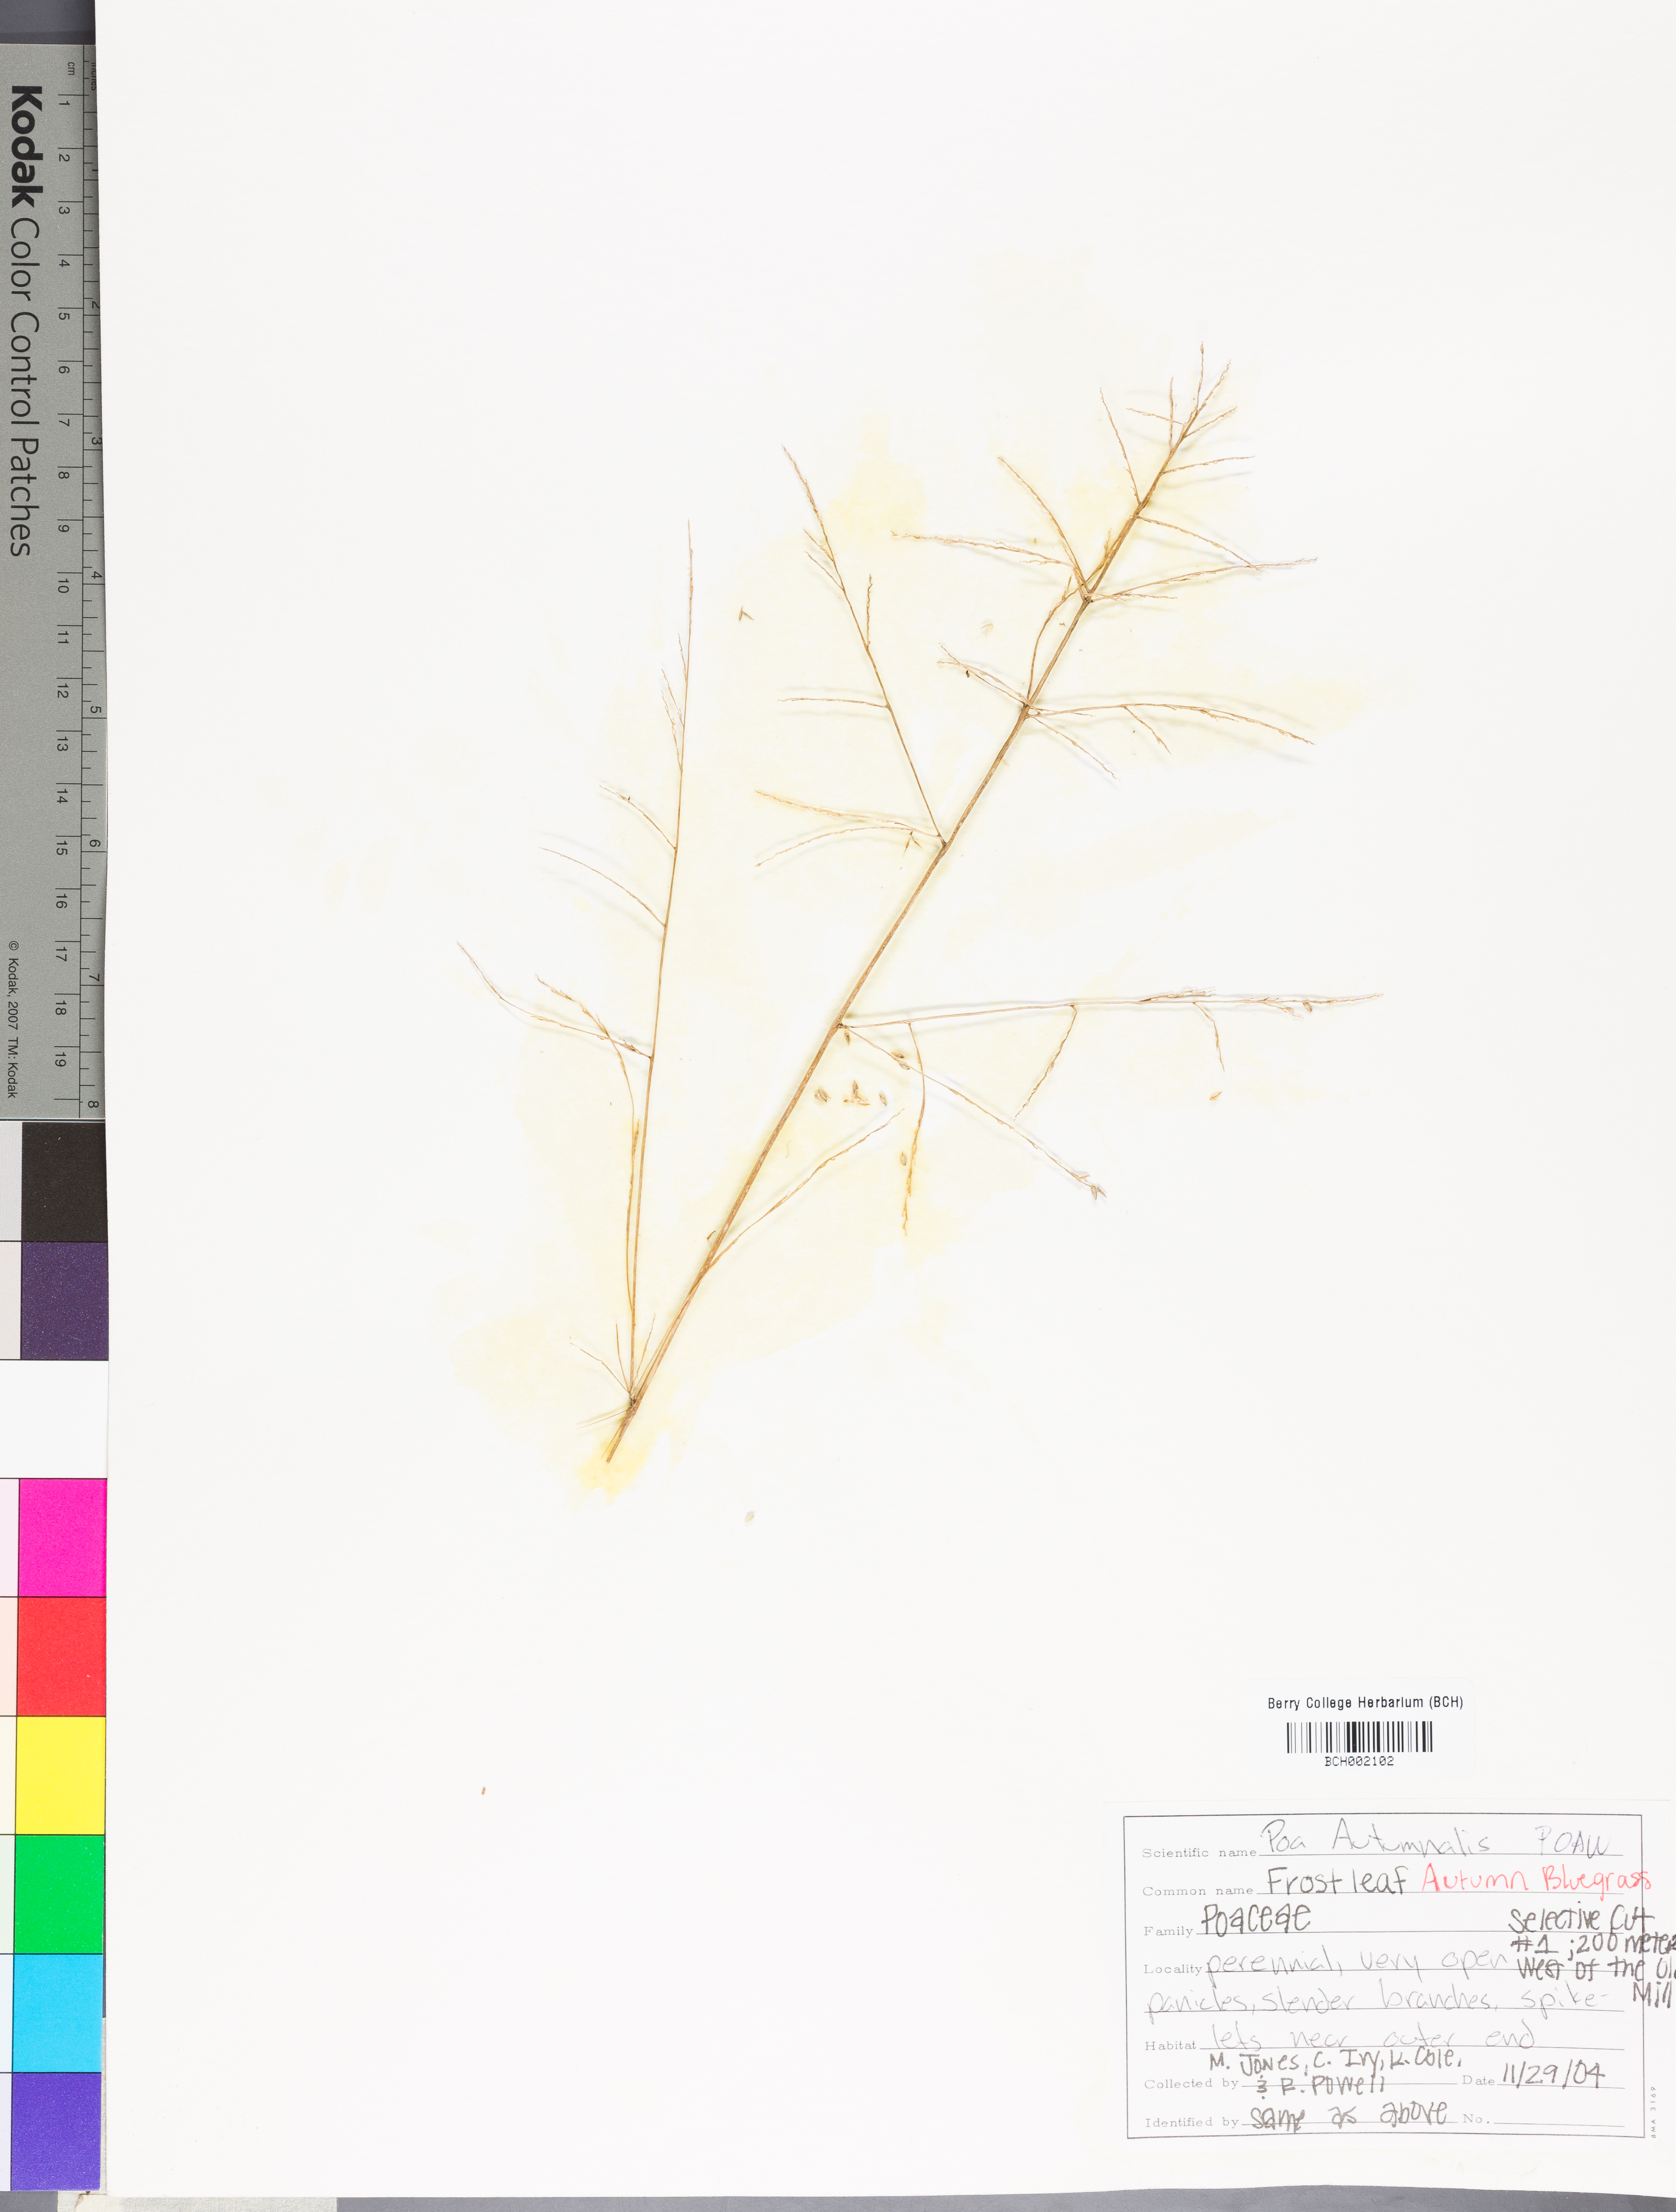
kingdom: Plantae
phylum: Tracheophyta
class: Liliopsida
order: Poales
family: Poaceae
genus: Poa
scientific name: Poa autumnalis
